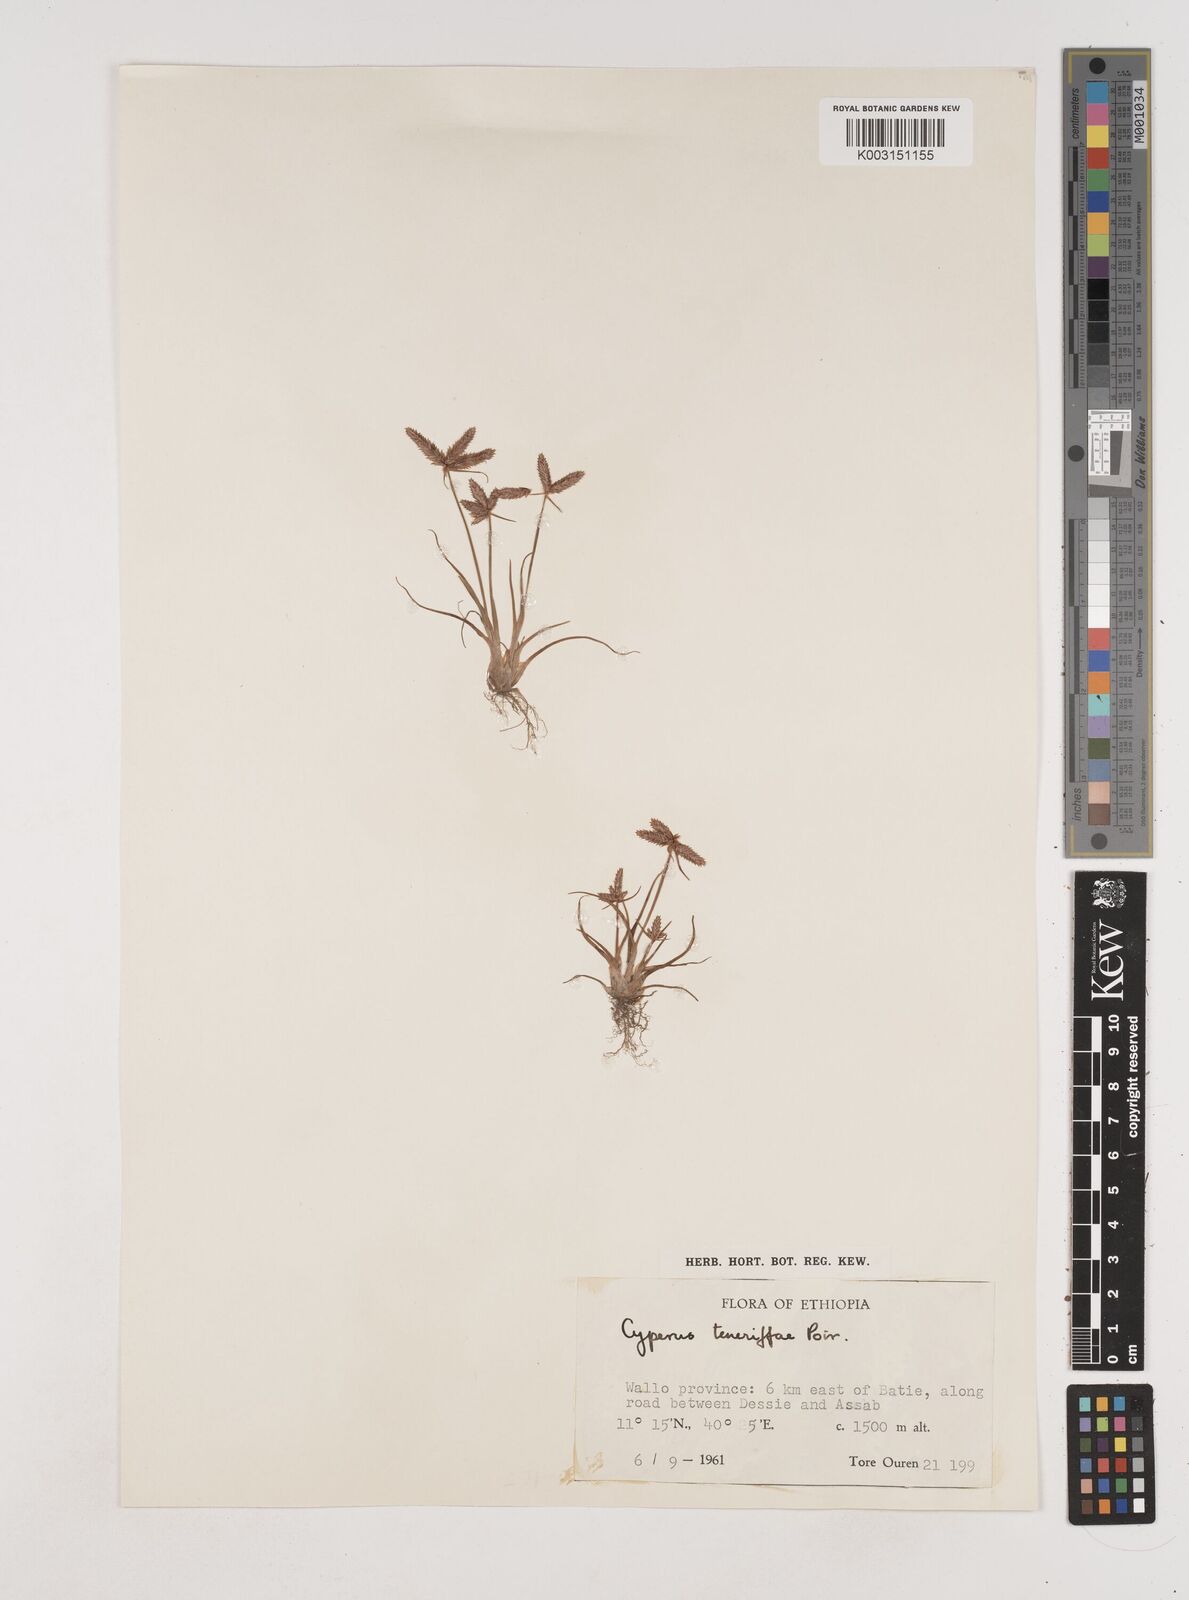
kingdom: Plantae
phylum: Tracheophyta
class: Liliopsida
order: Poales
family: Cyperaceae
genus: Cyperus
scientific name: Cyperus rubicundus
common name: Coco-grass
